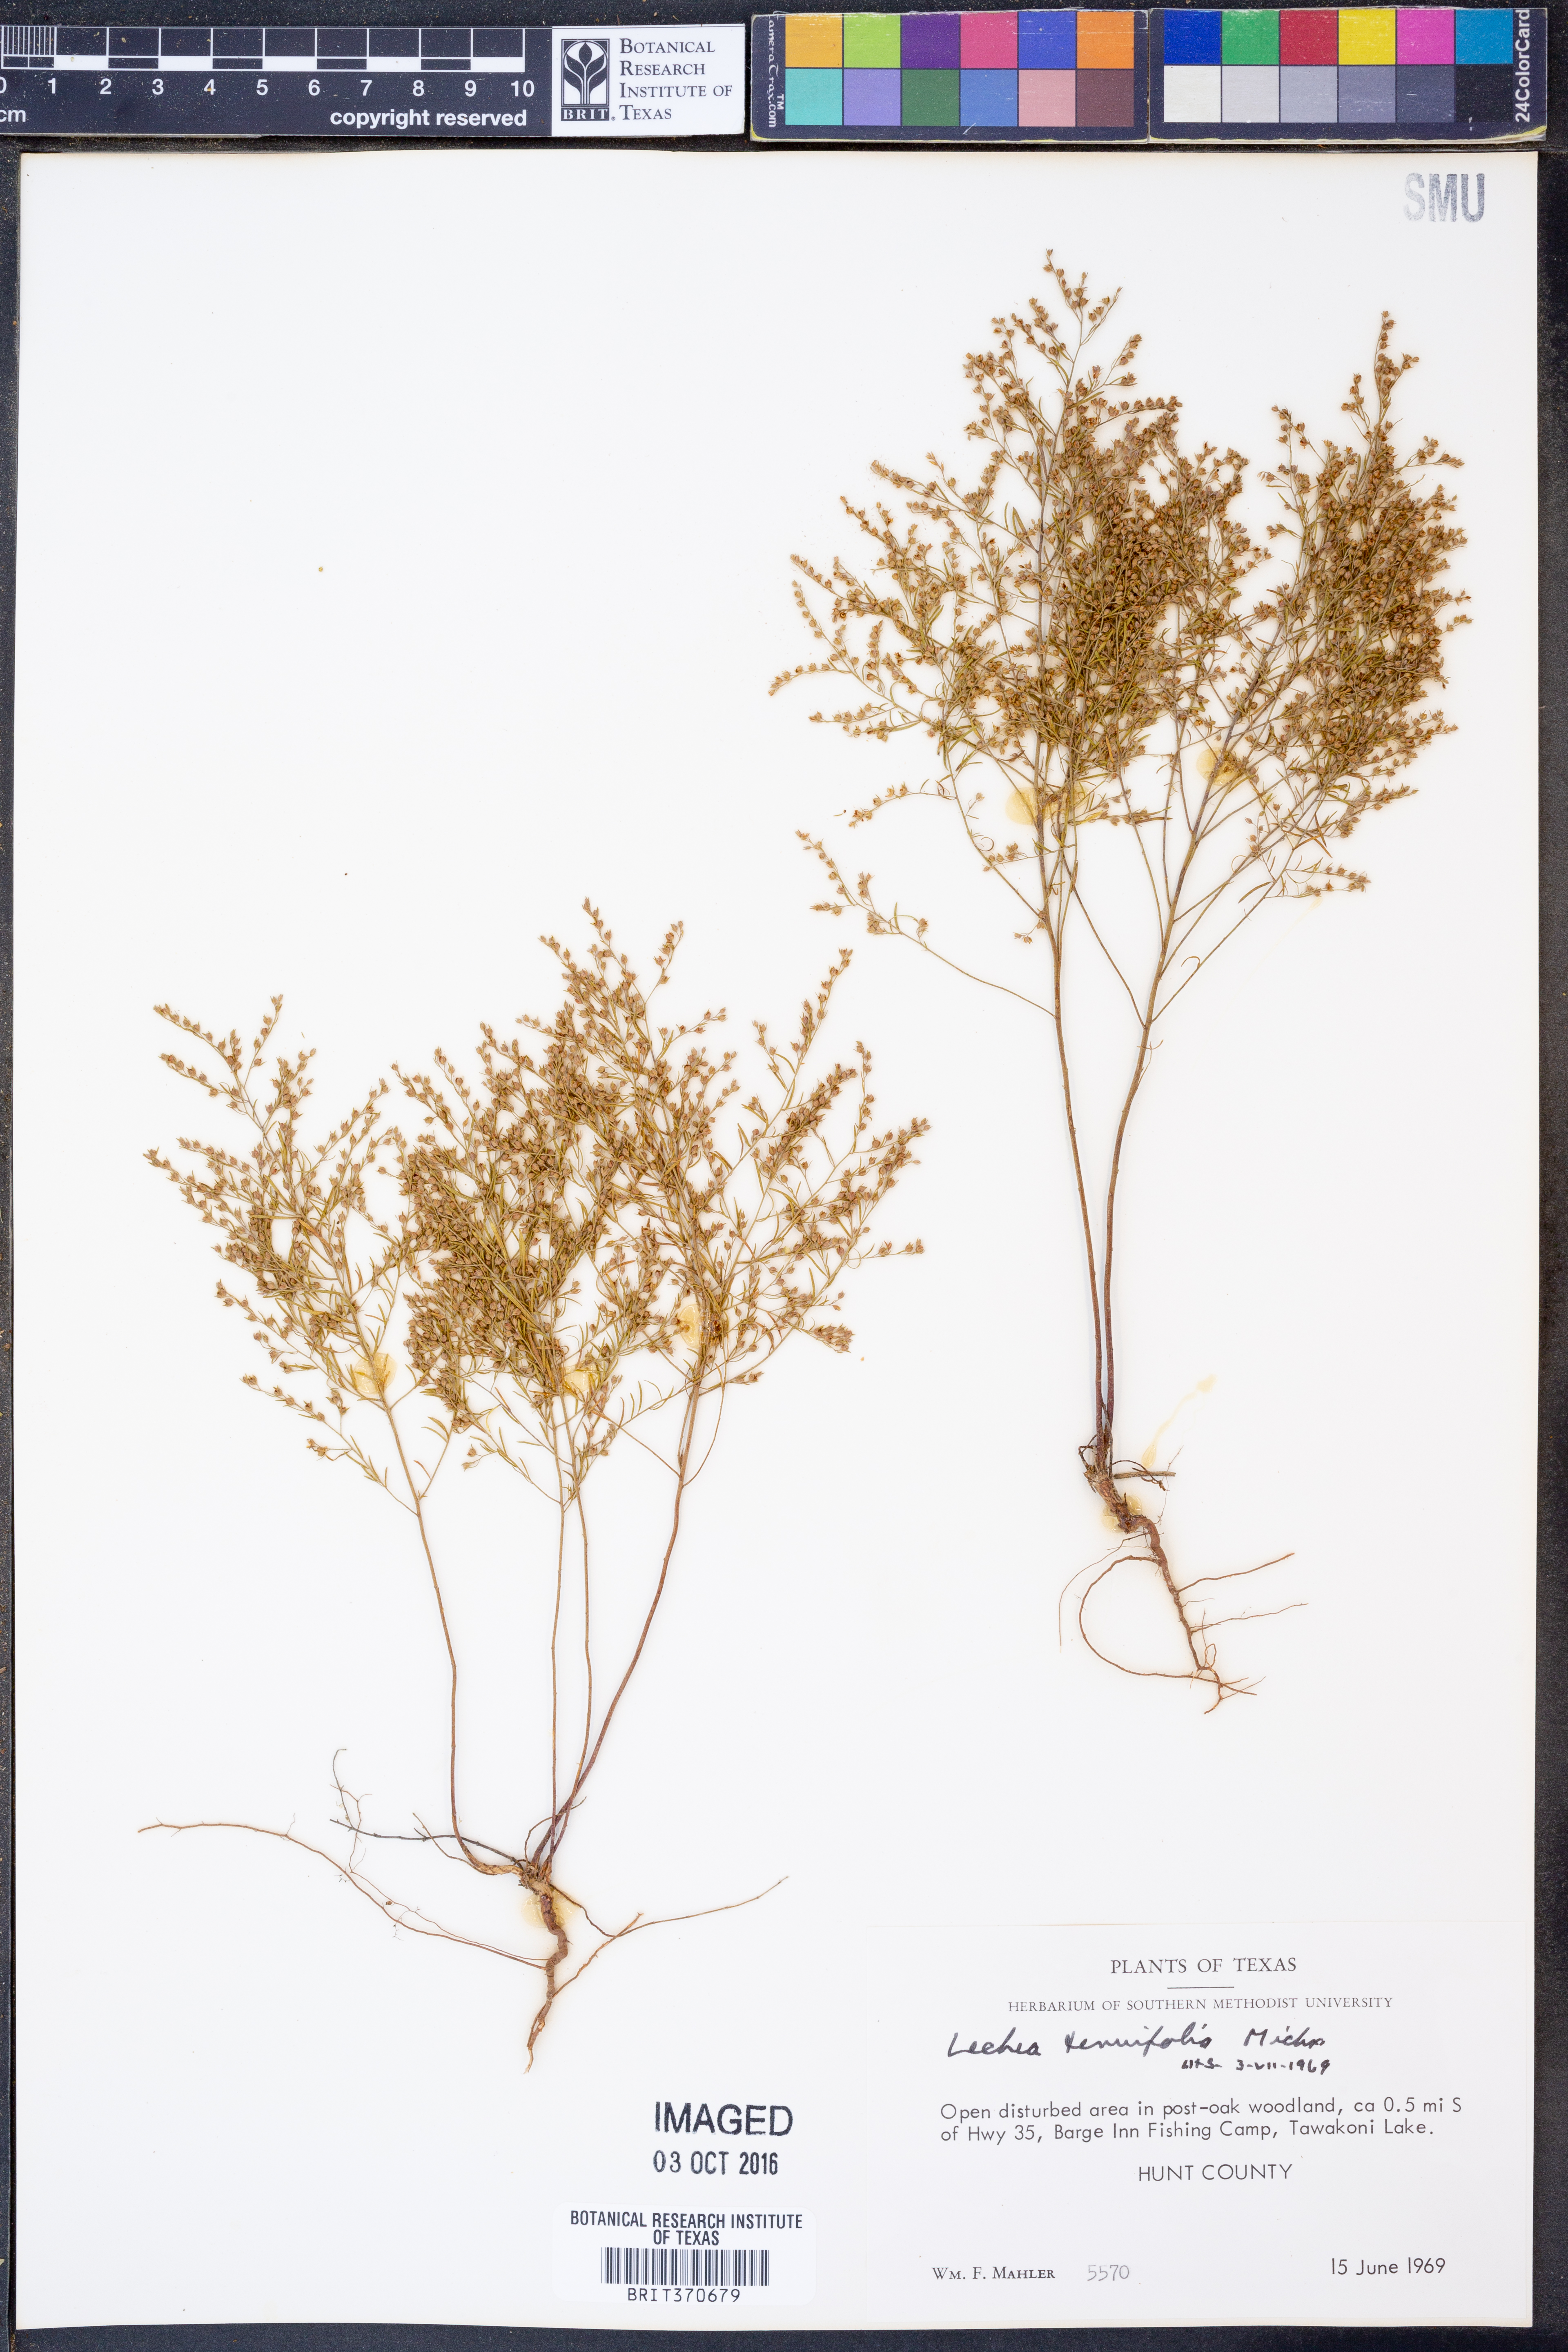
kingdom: Plantae
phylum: Tracheophyta
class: Magnoliopsida
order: Malvales
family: Cistaceae
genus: Lechea
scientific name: Lechea tenuifolia
